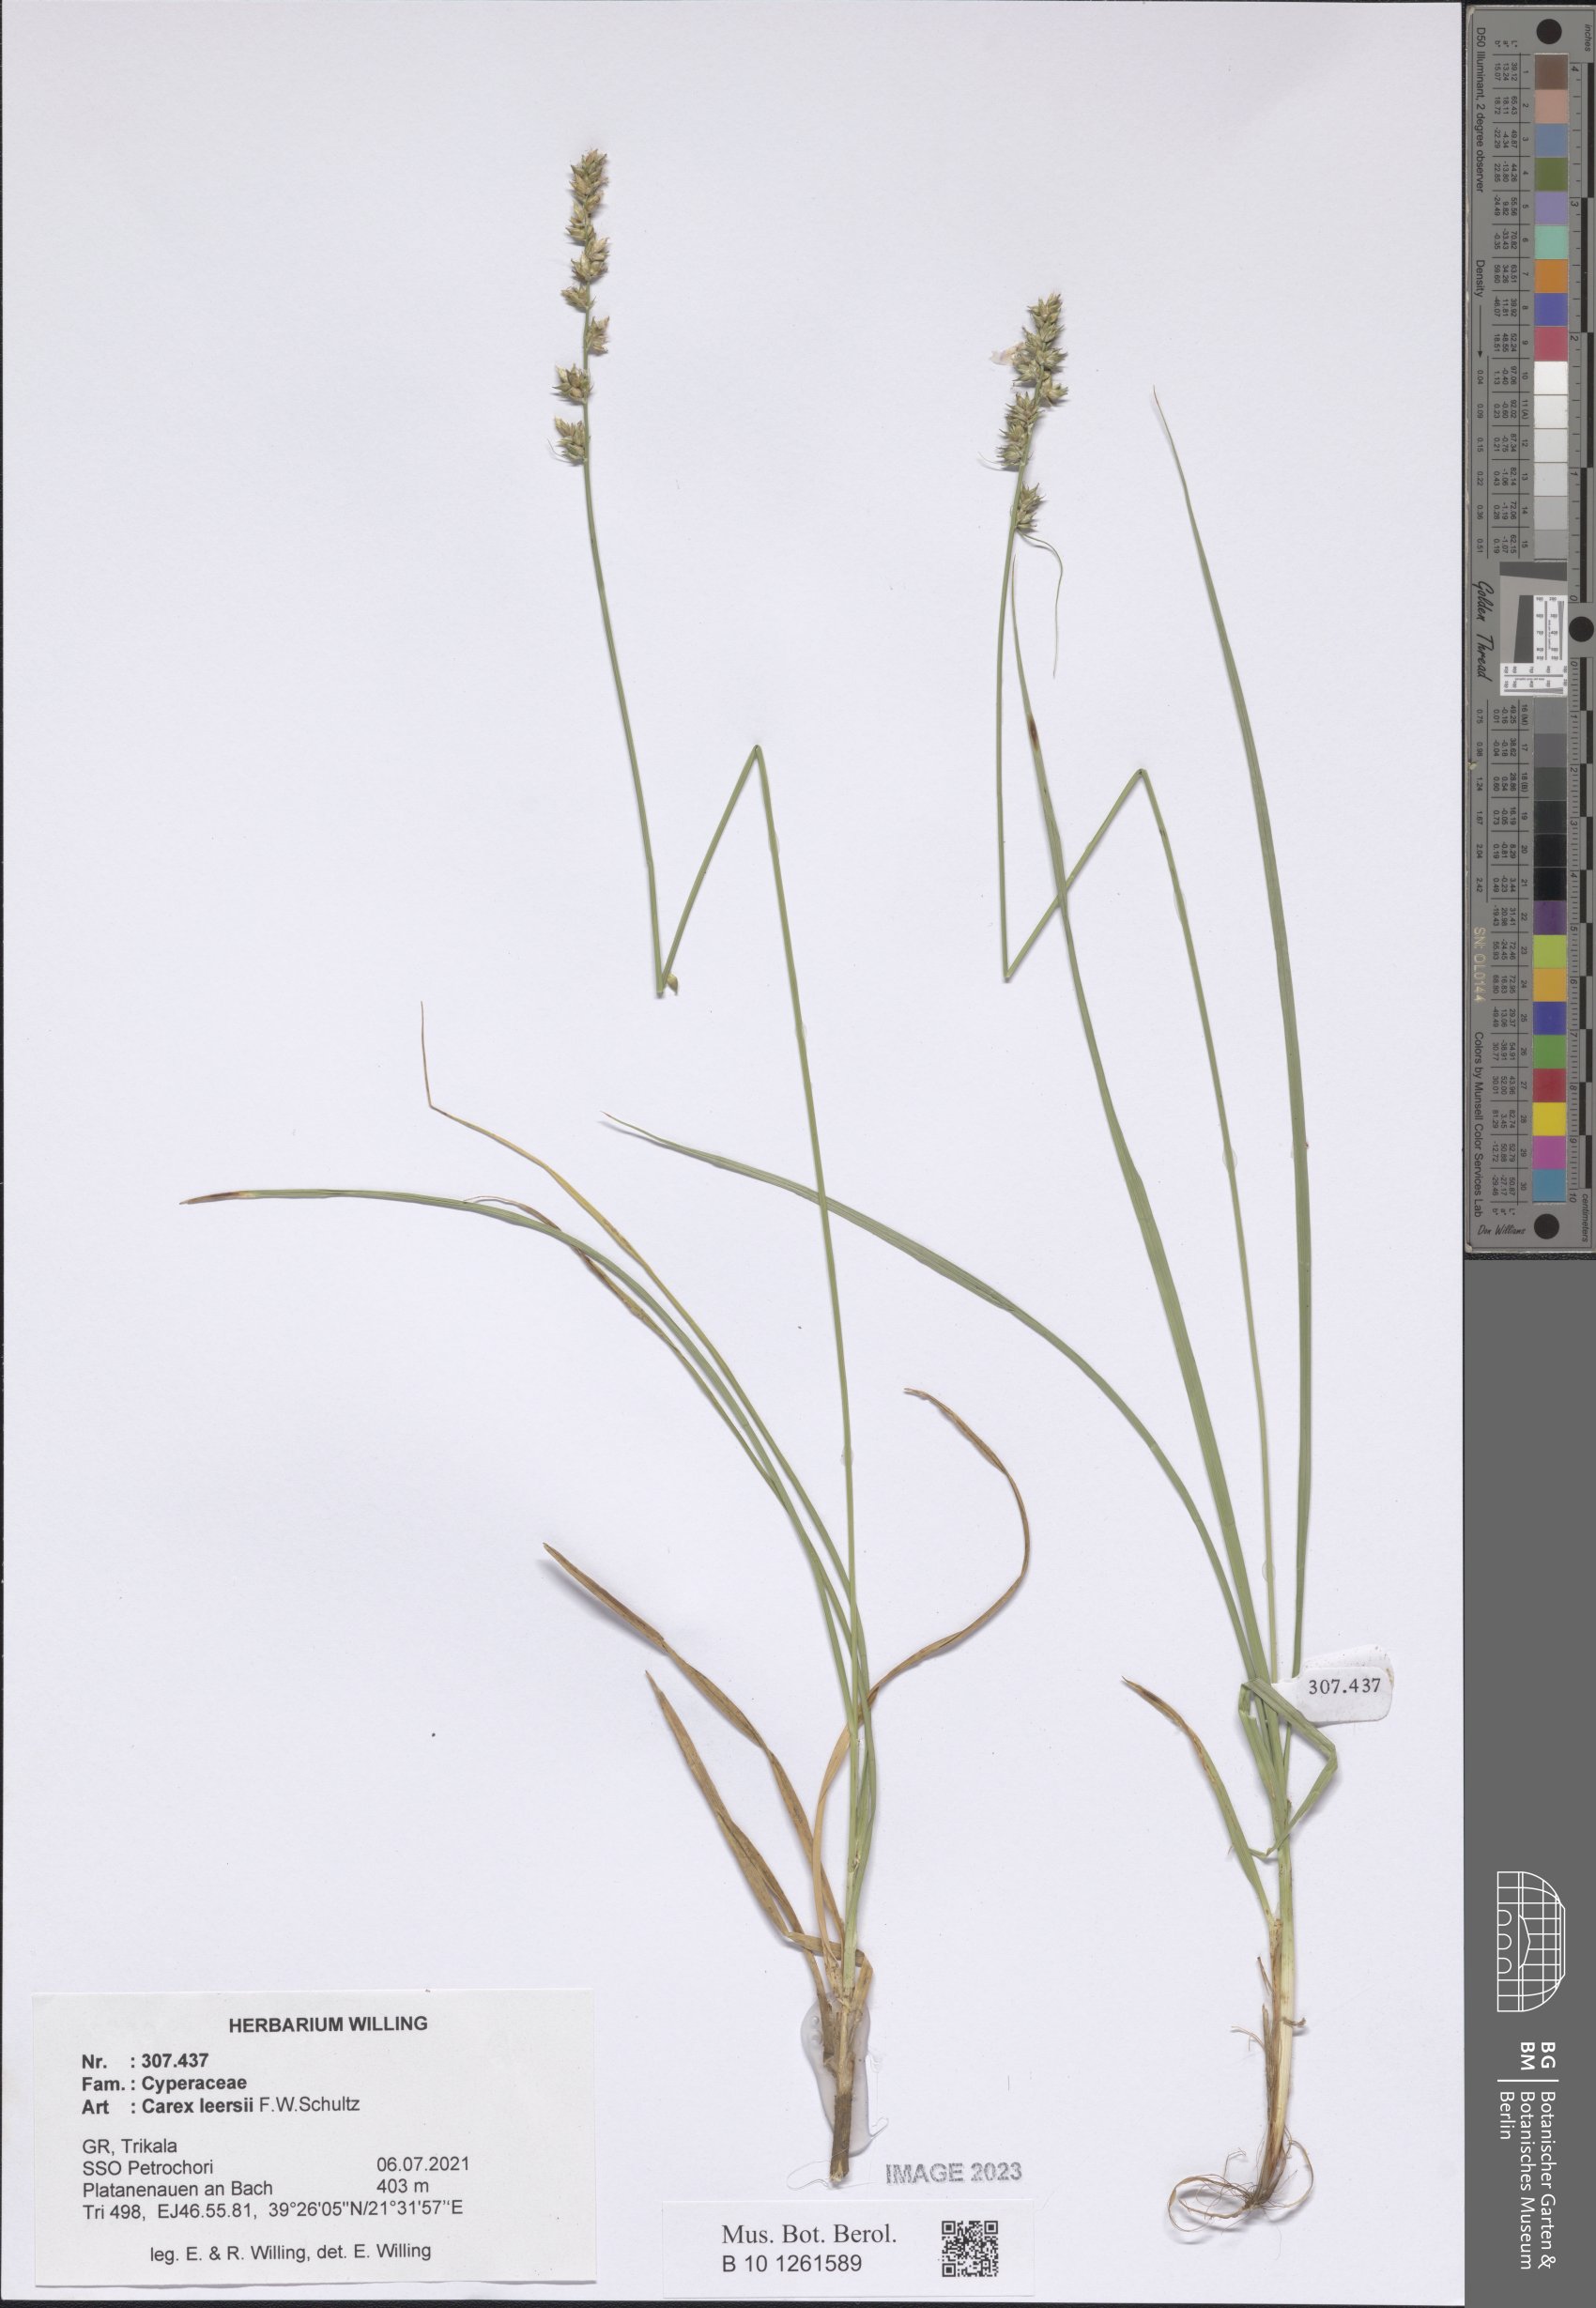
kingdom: Plantae
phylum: Tracheophyta
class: Liliopsida
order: Poales
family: Cyperaceae
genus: Carex
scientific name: Carex leersii
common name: Leers' sedge
